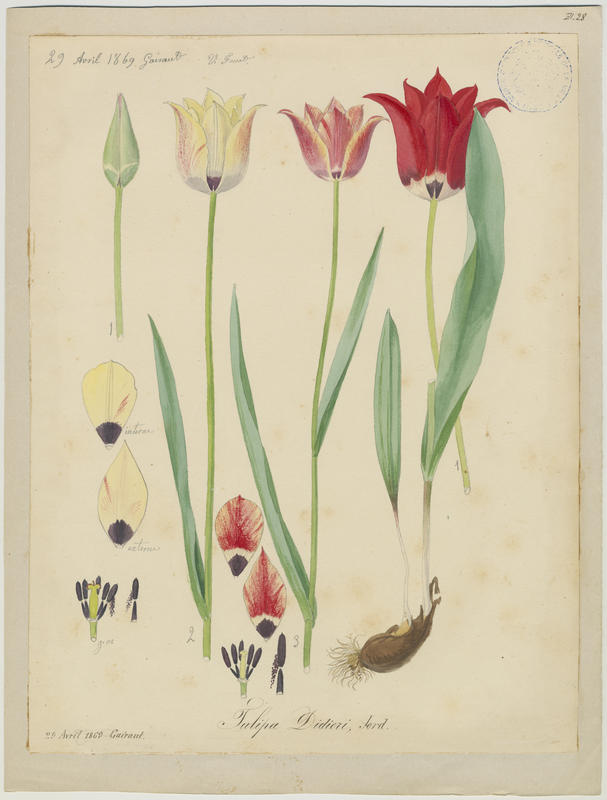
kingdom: Plantae
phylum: Tracheophyta
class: Liliopsida
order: Liliales
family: Liliaceae
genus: Tulipa
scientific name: Tulipa gesneriana
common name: Garden tulip
